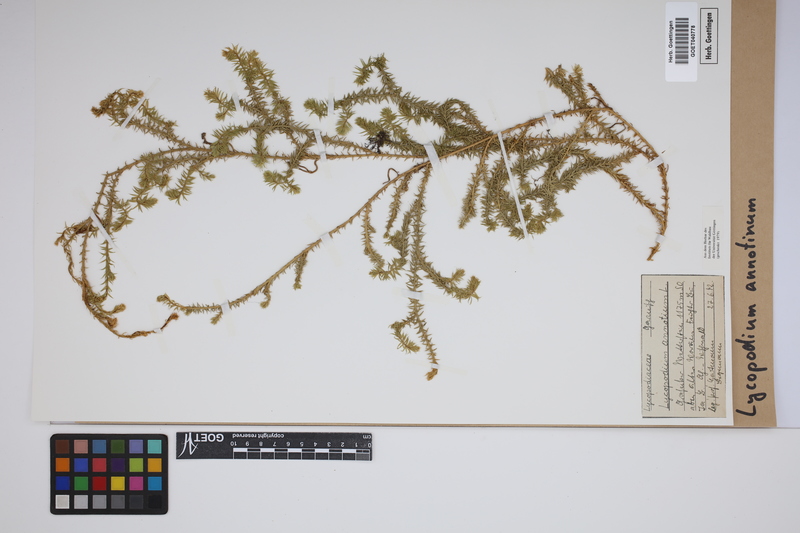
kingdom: Plantae
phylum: Tracheophyta
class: Lycopodiopsida
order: Lycopodiales
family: Lycopodiaceae
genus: Spinulum
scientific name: Spinulum annotinum
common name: Interrupted club-moss
